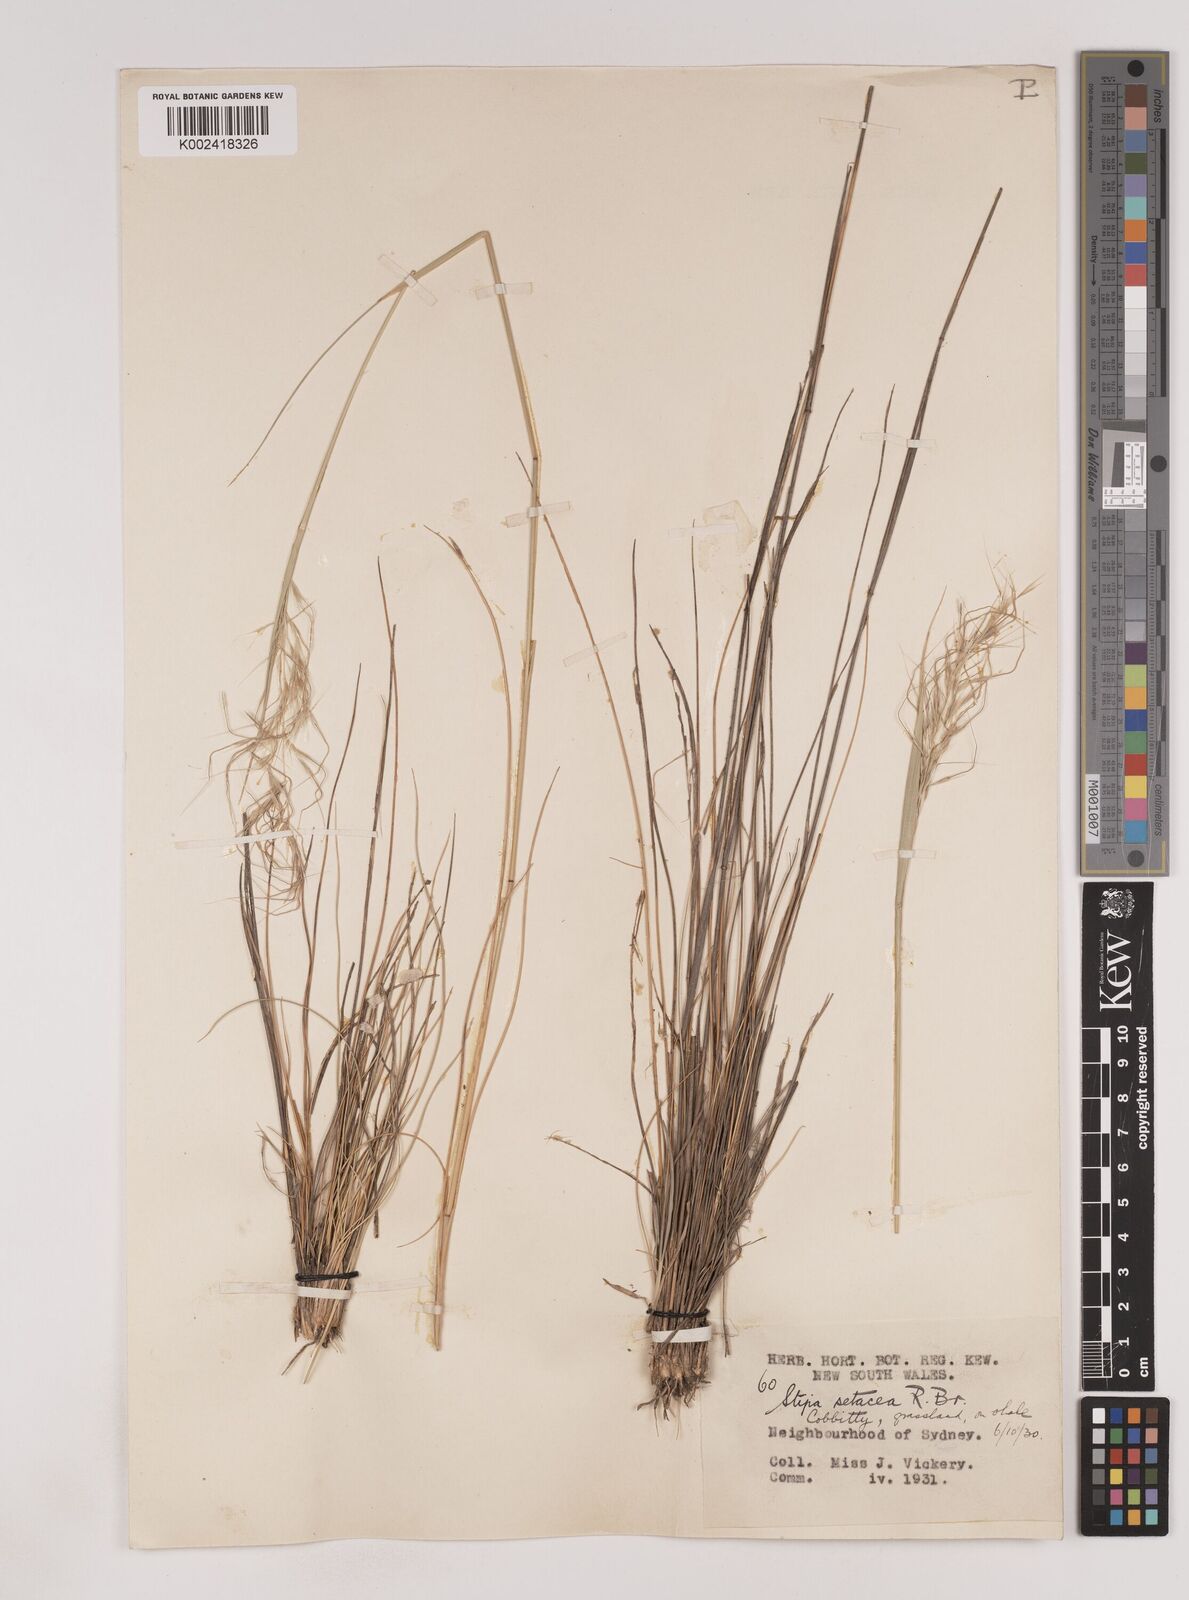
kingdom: Plantae
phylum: Tracheophyta
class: Liliopsida
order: Poales
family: Poaceae
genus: Piptochaetium
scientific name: Piptochaetium
